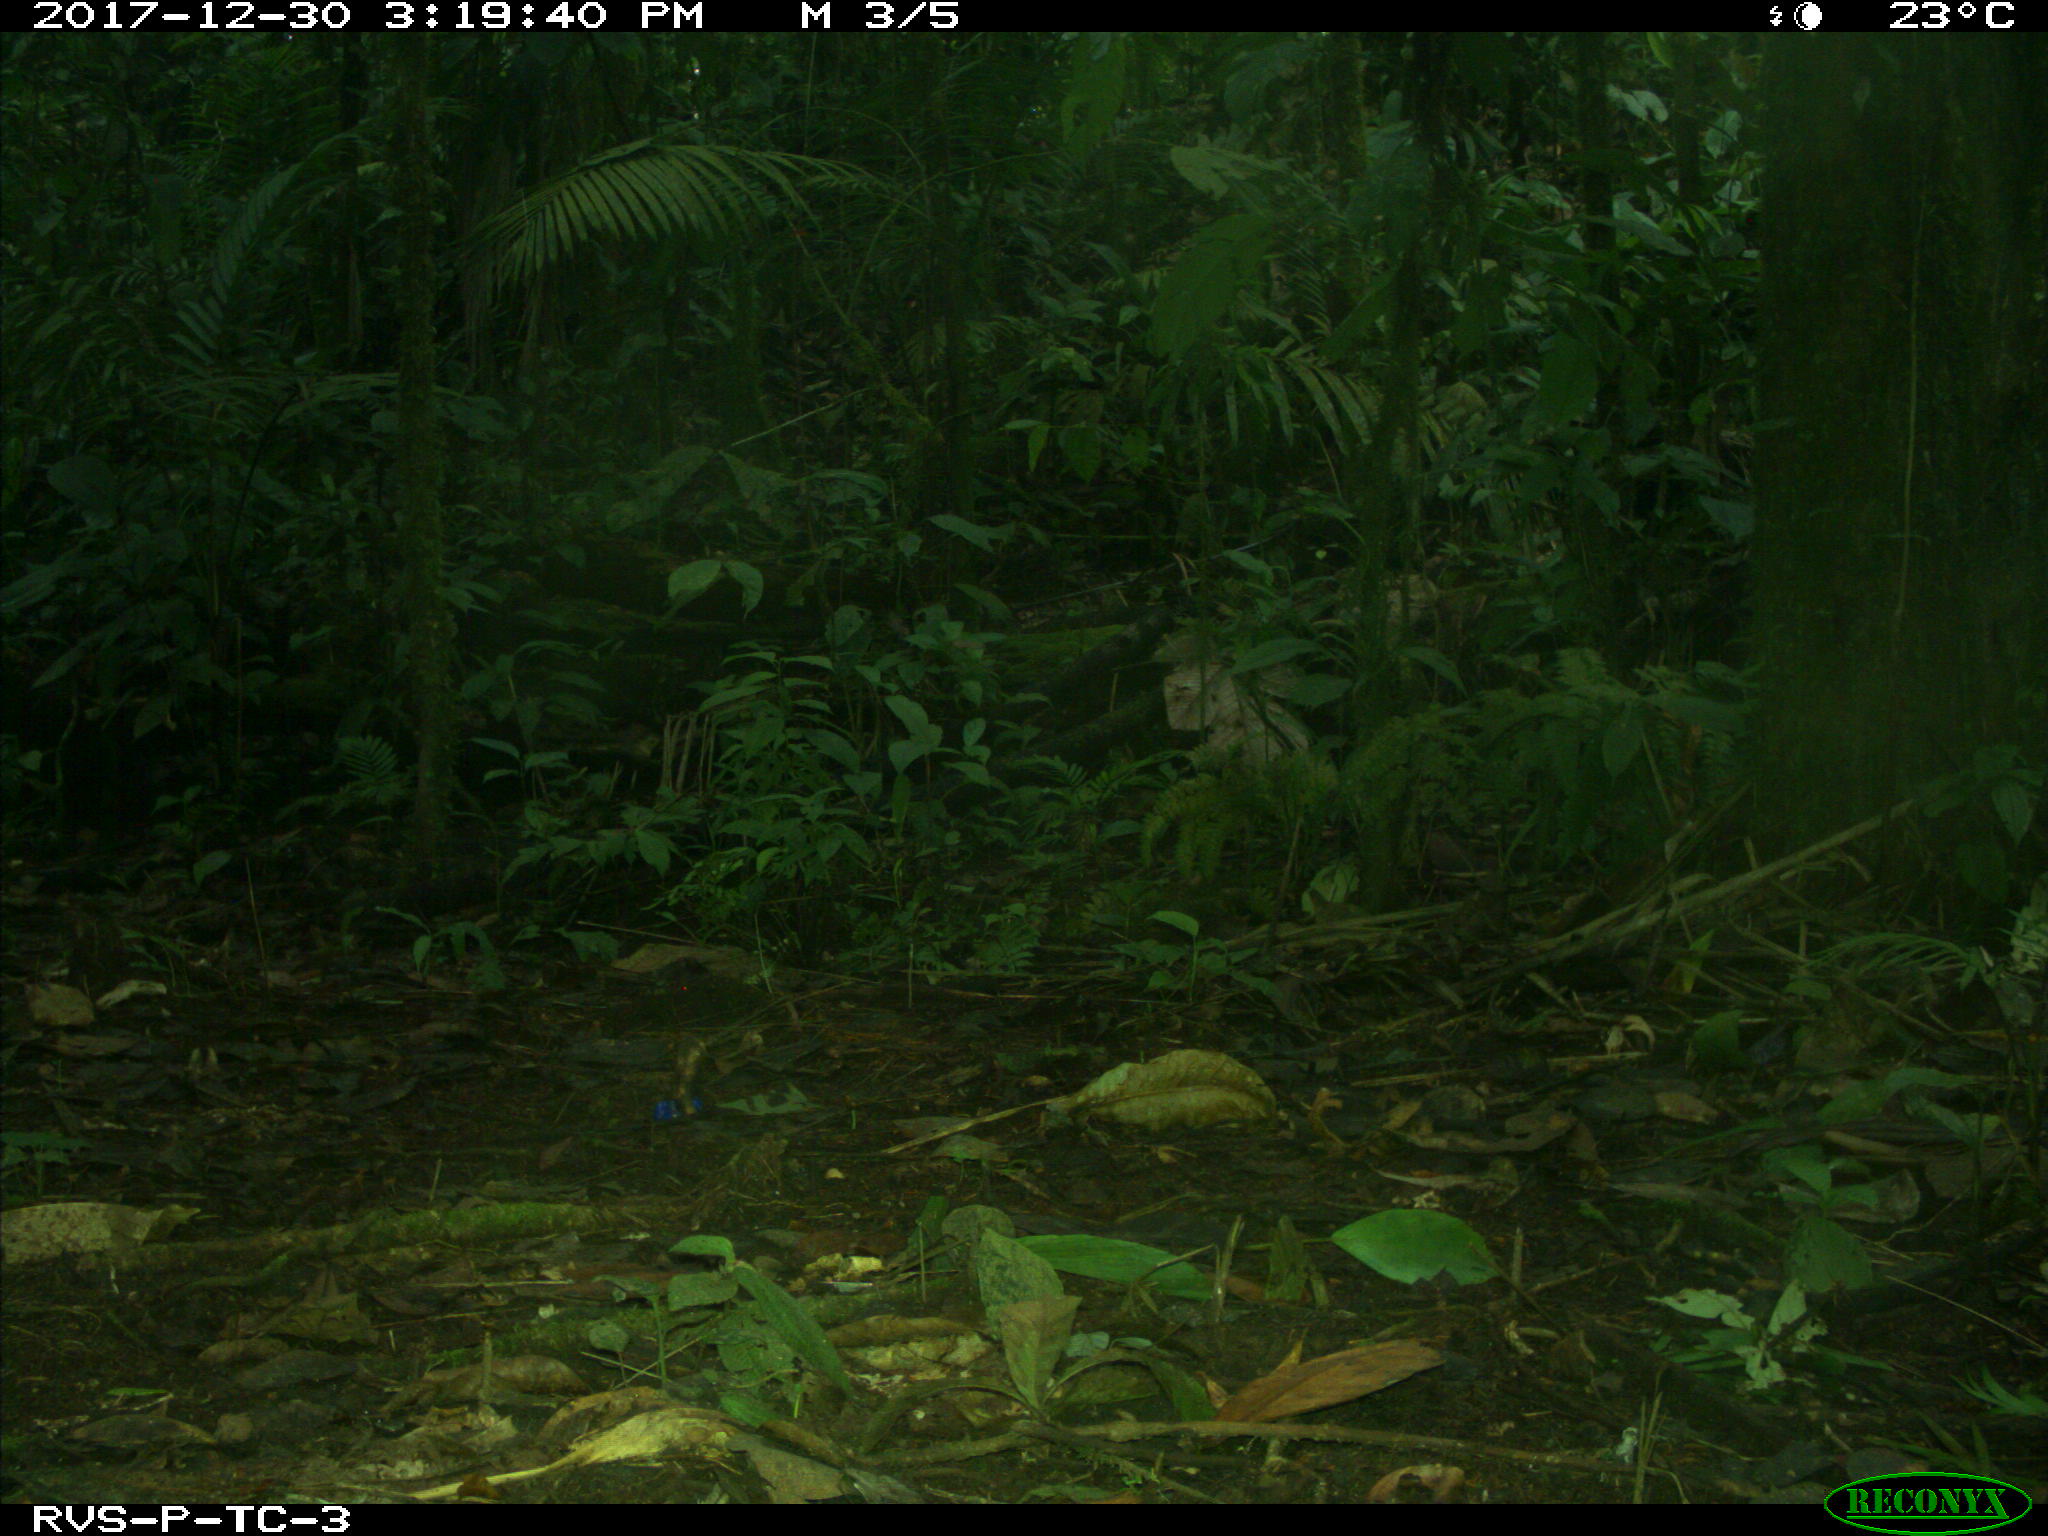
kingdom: Animalia
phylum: Chordata
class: Mammalia
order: Rodentia
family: Dasyproctidae
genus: Dasyprocta
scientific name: Dasyprocta punctata
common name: Central american agouti
